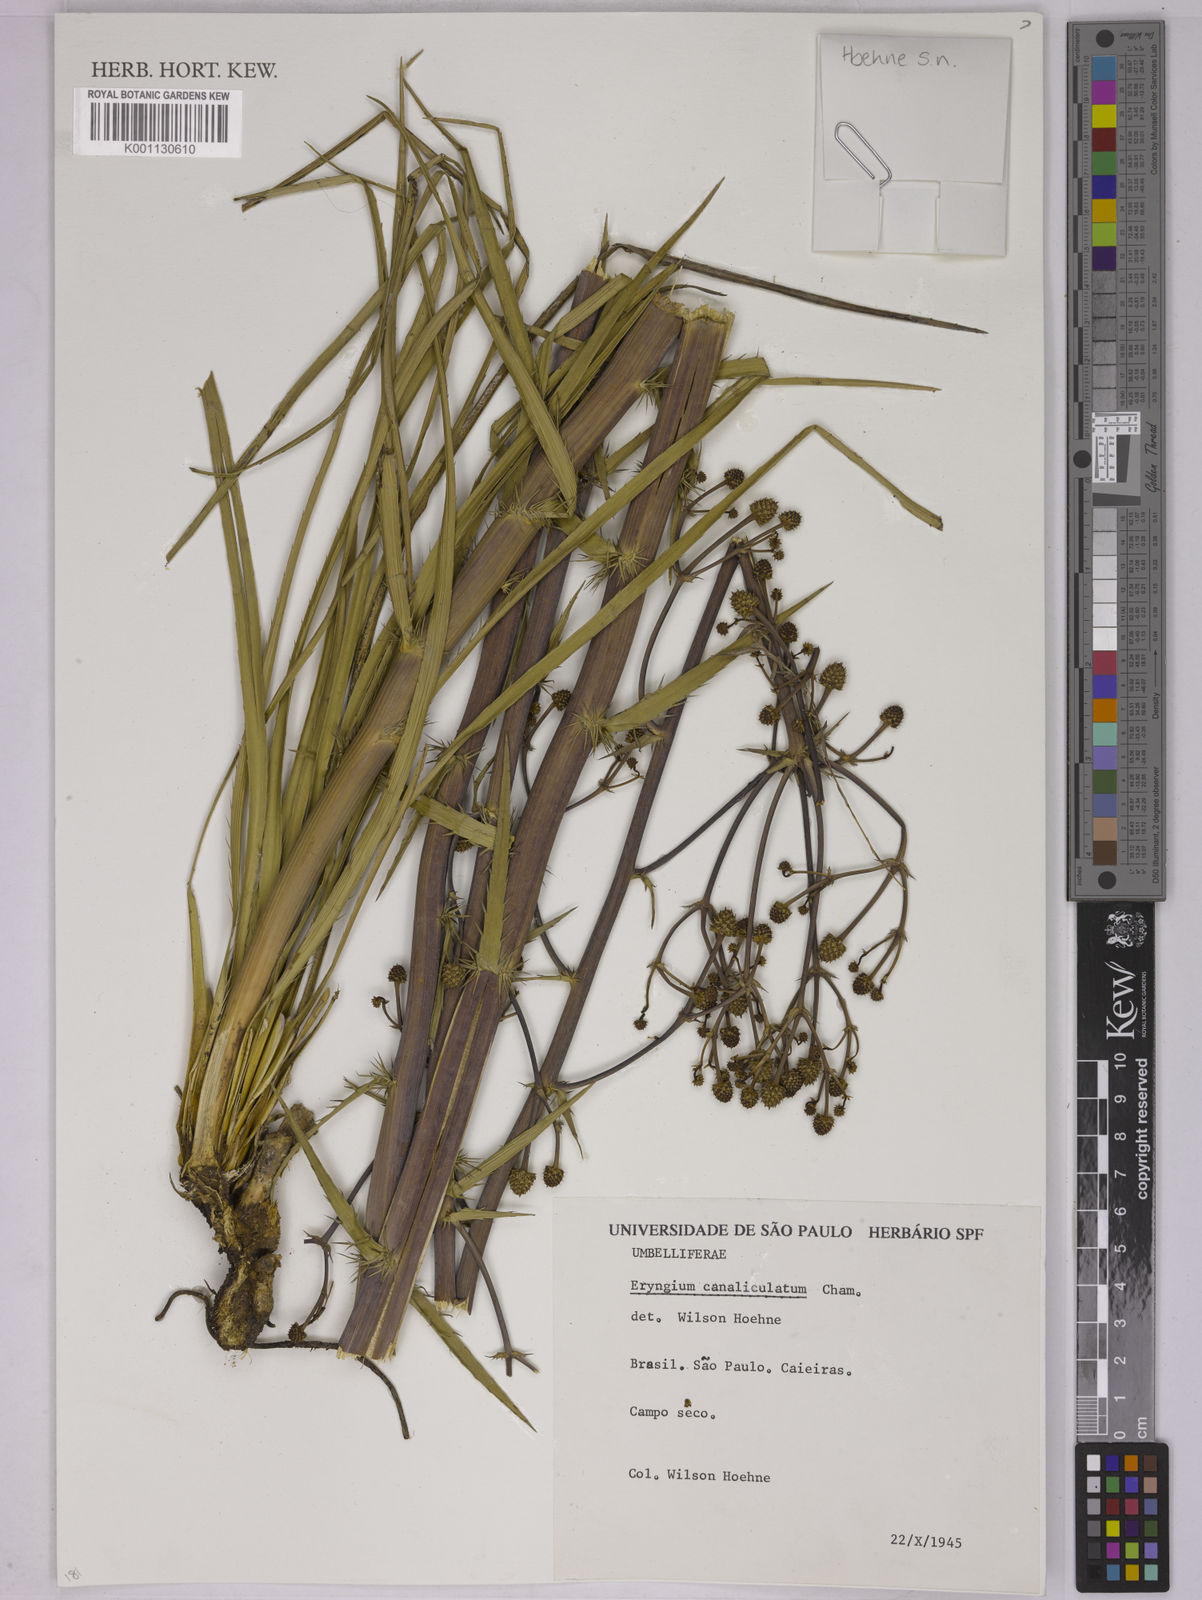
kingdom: Plantae
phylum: Tracheophyta
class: Magnoliopsida
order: Apiales
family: Apiaceae
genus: Eryngium
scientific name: Eryngium canaliculatum
